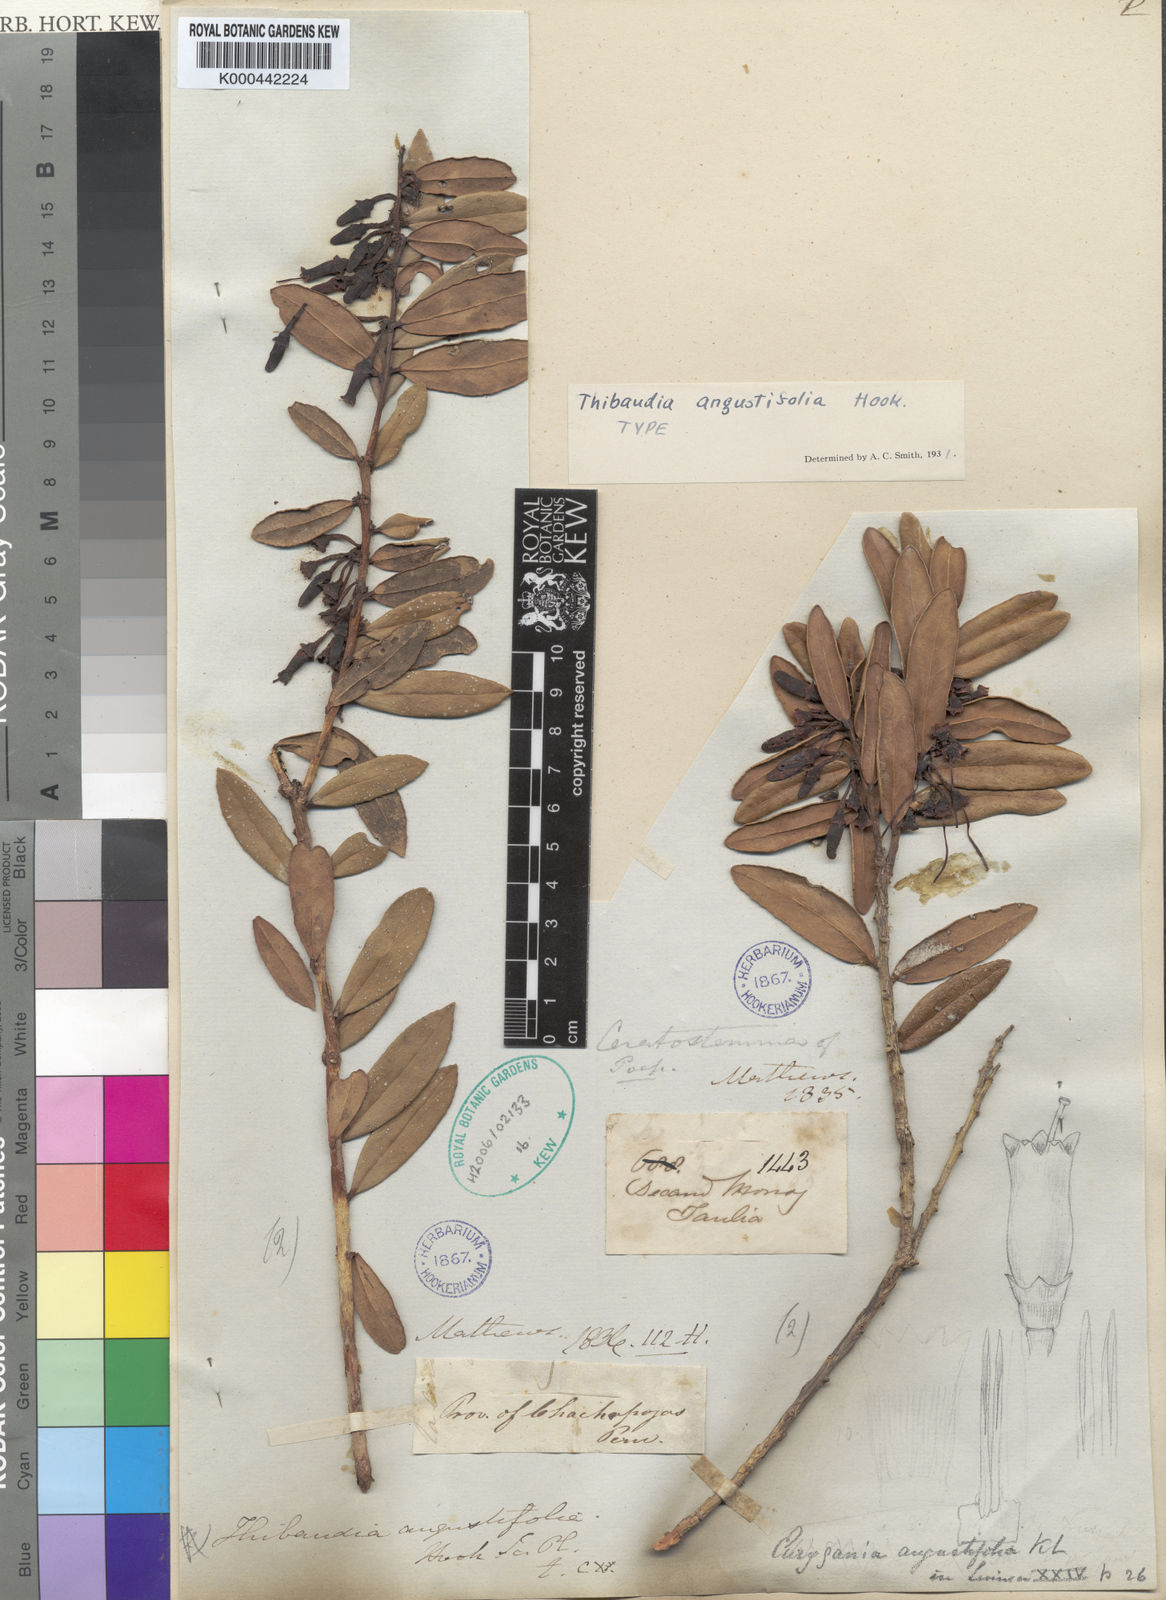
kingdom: Plantae
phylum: Tracheophyta
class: Magnoliopsida
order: Ericales
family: Ericaceae
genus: Thibaudia
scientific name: Thibaudia angustifolia
